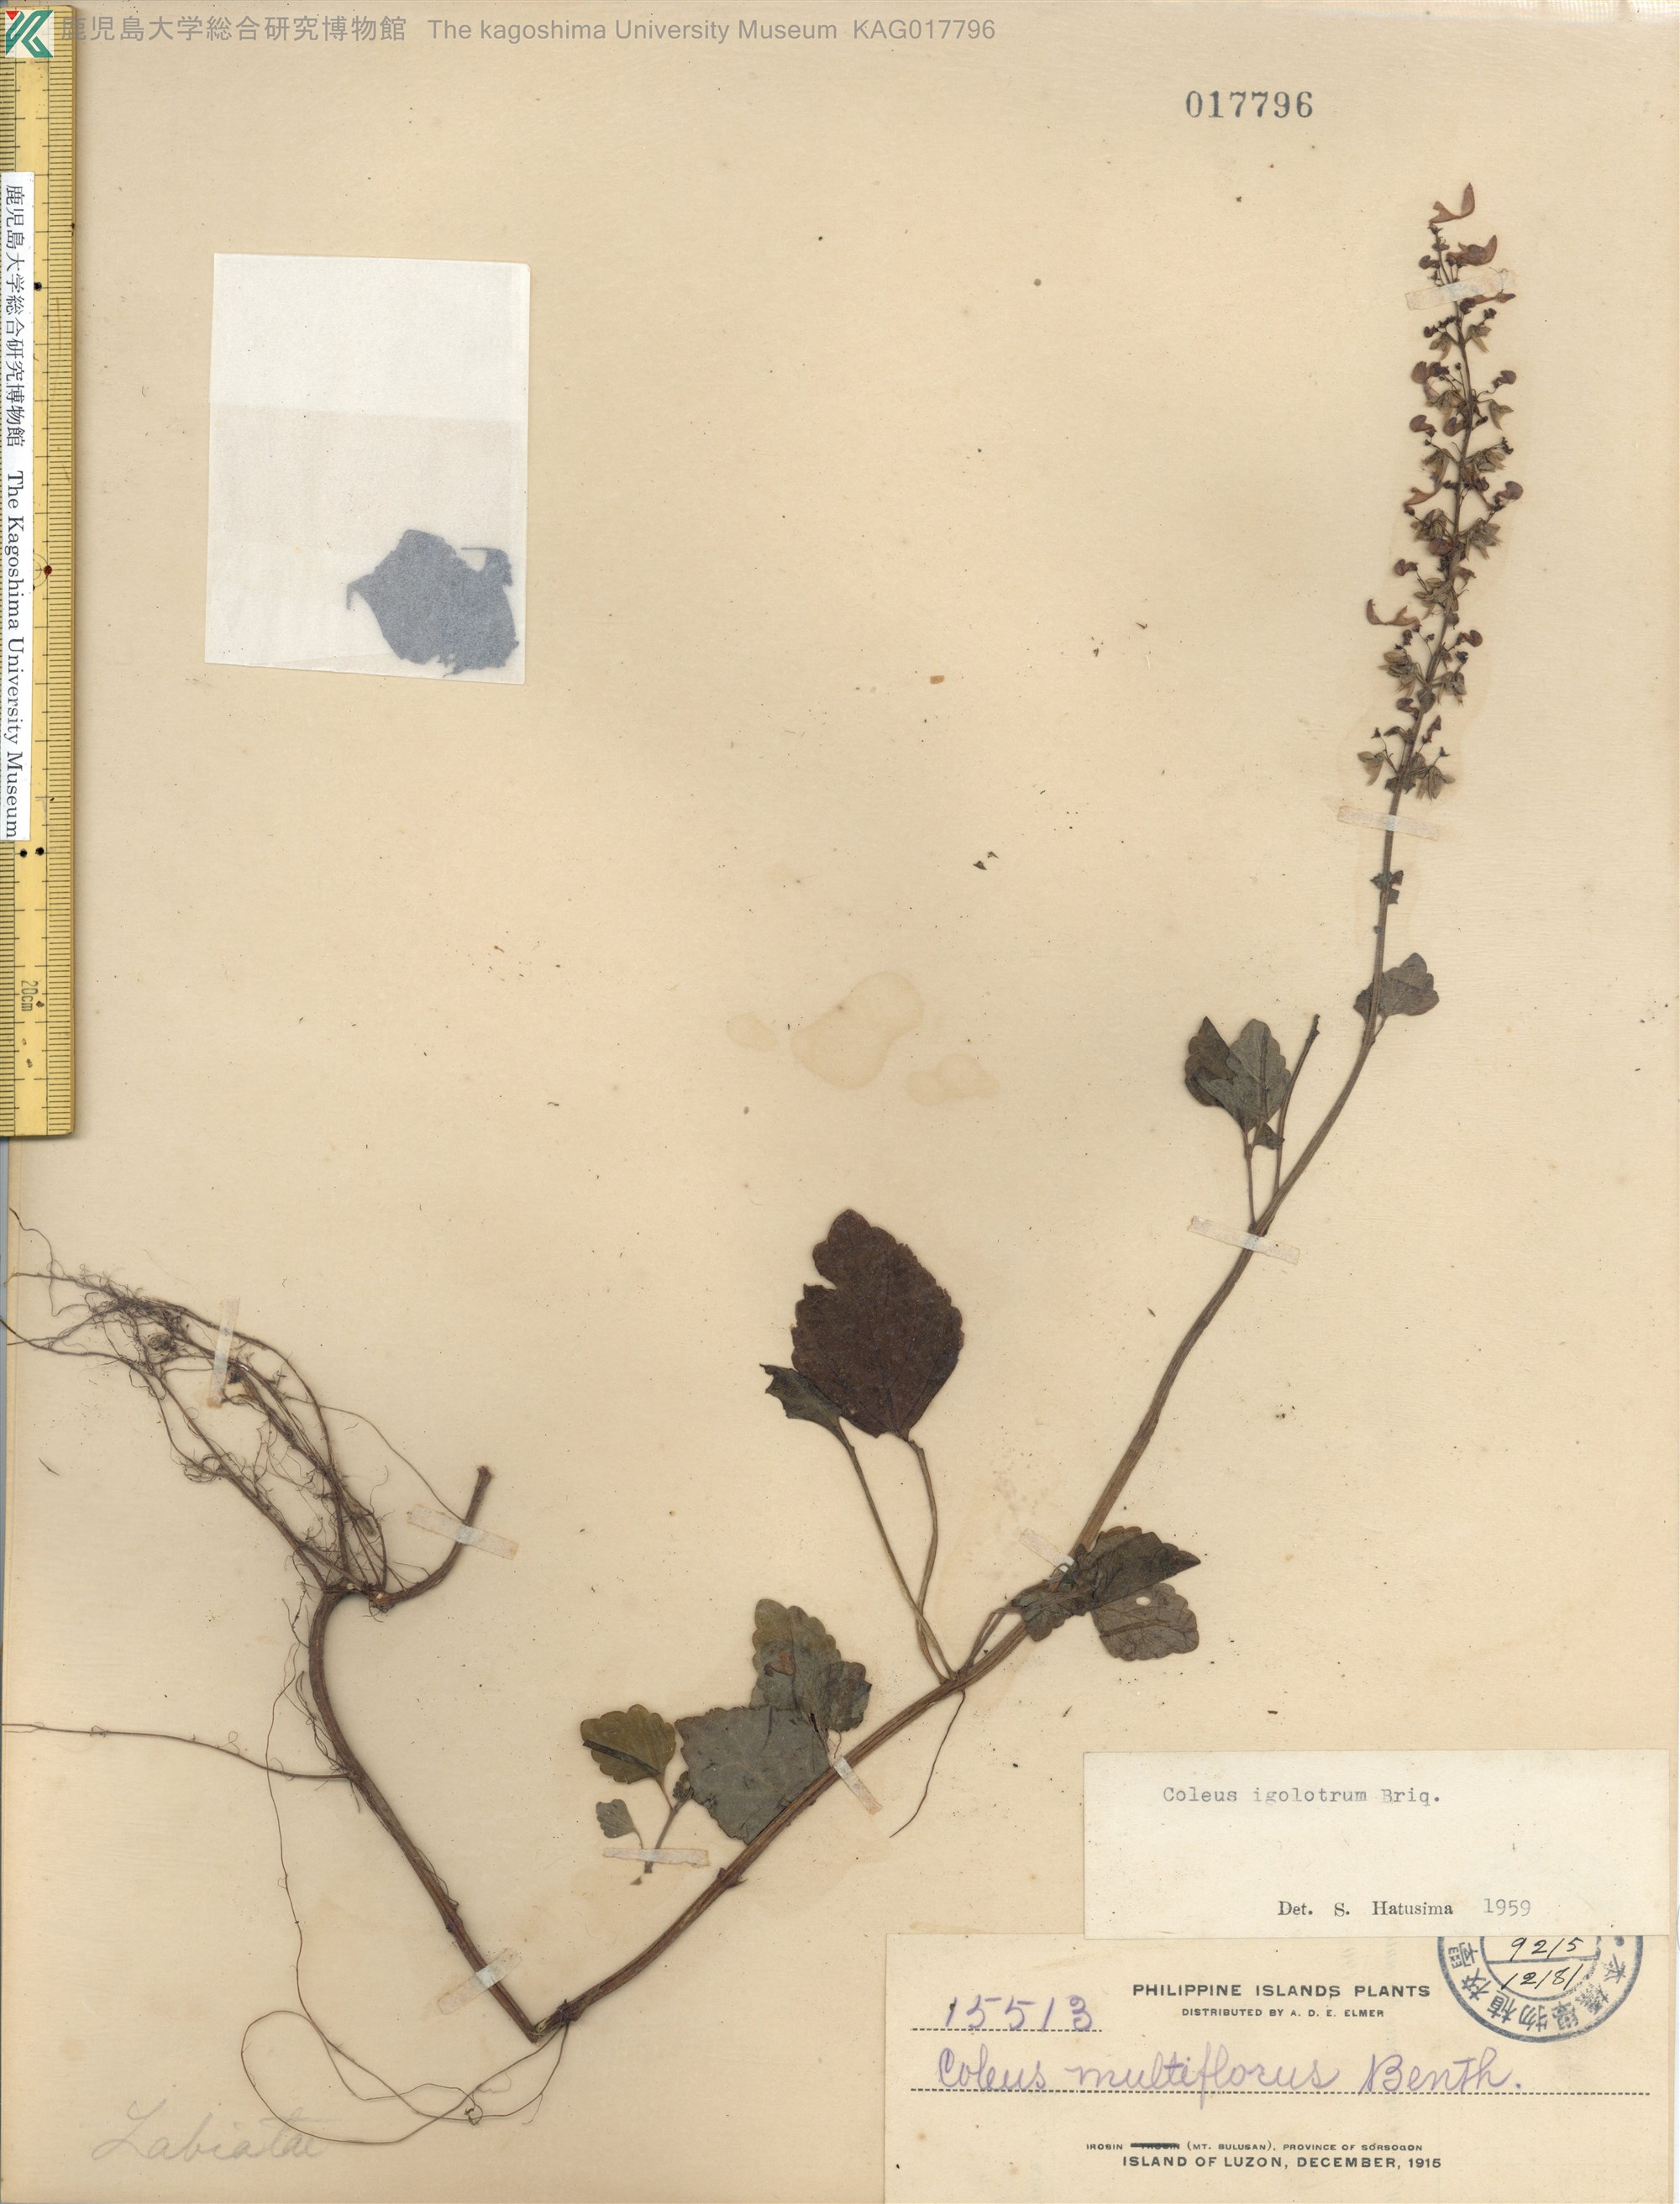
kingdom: Plantae
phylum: Tracheophyta
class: Magnoliopsida
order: Lamiales
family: Lamiaceae
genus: Coleus
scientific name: Coleus scutellarioides
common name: Coleus
